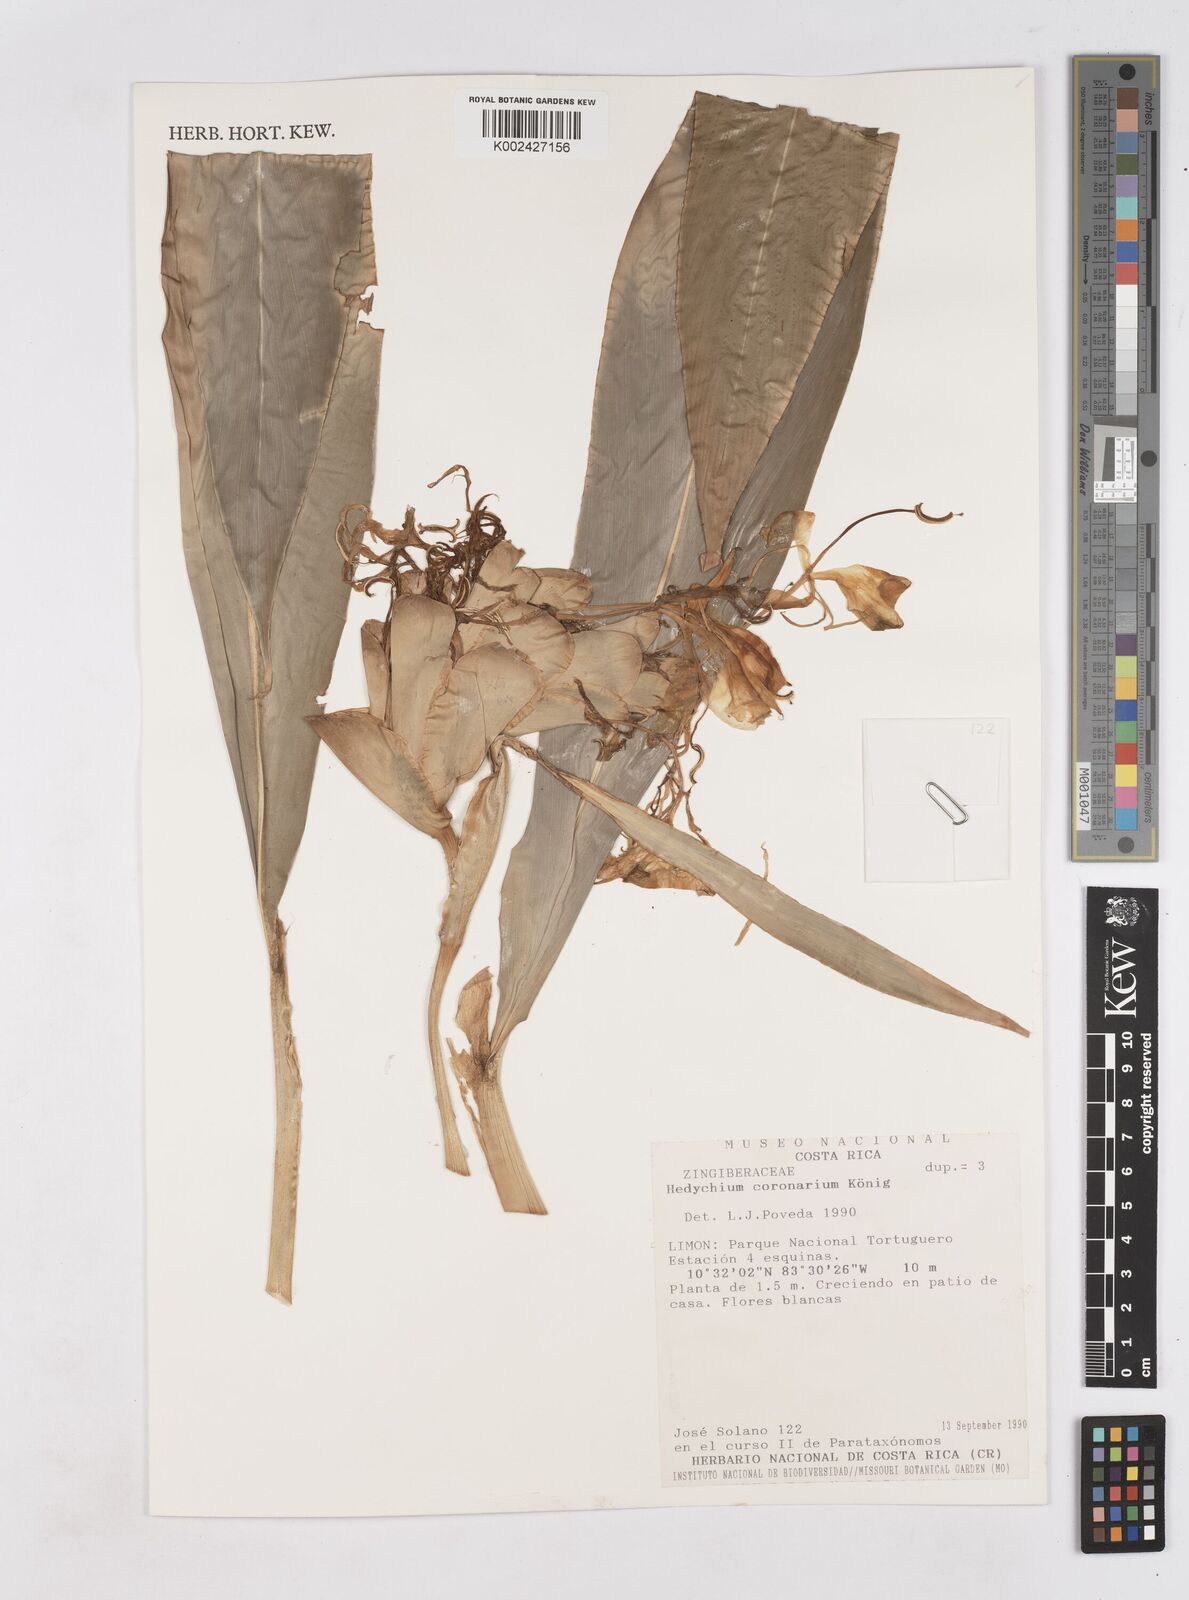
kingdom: Plantae
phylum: Tracheophyta
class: Liliopsida
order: Zingiberales
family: Zingiberaceae
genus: Hedychium
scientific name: Hedychium coronarium
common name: White garland-lily
